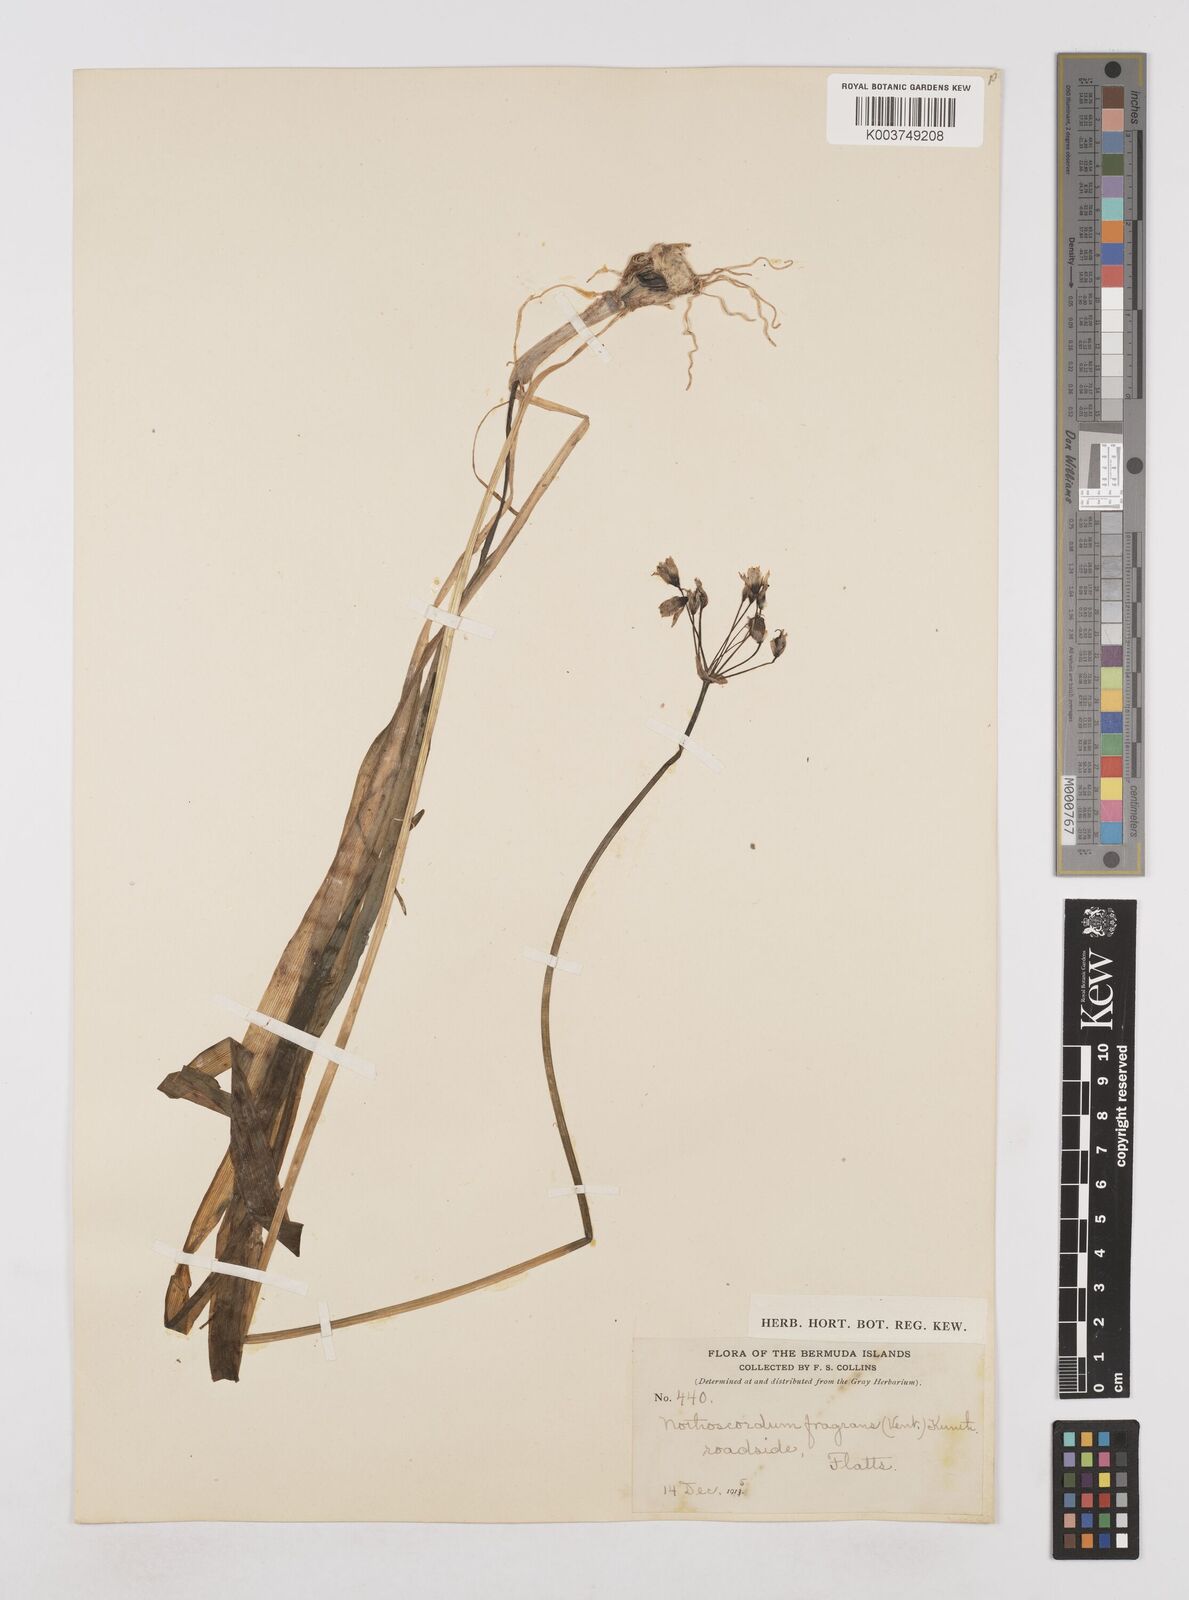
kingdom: Plantae
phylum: Tracheophyta
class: Liliopsida
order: Asparagales
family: Amaryllidaceae
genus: Allium
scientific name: Allium neapolitanum
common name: Neapolitan garlic
